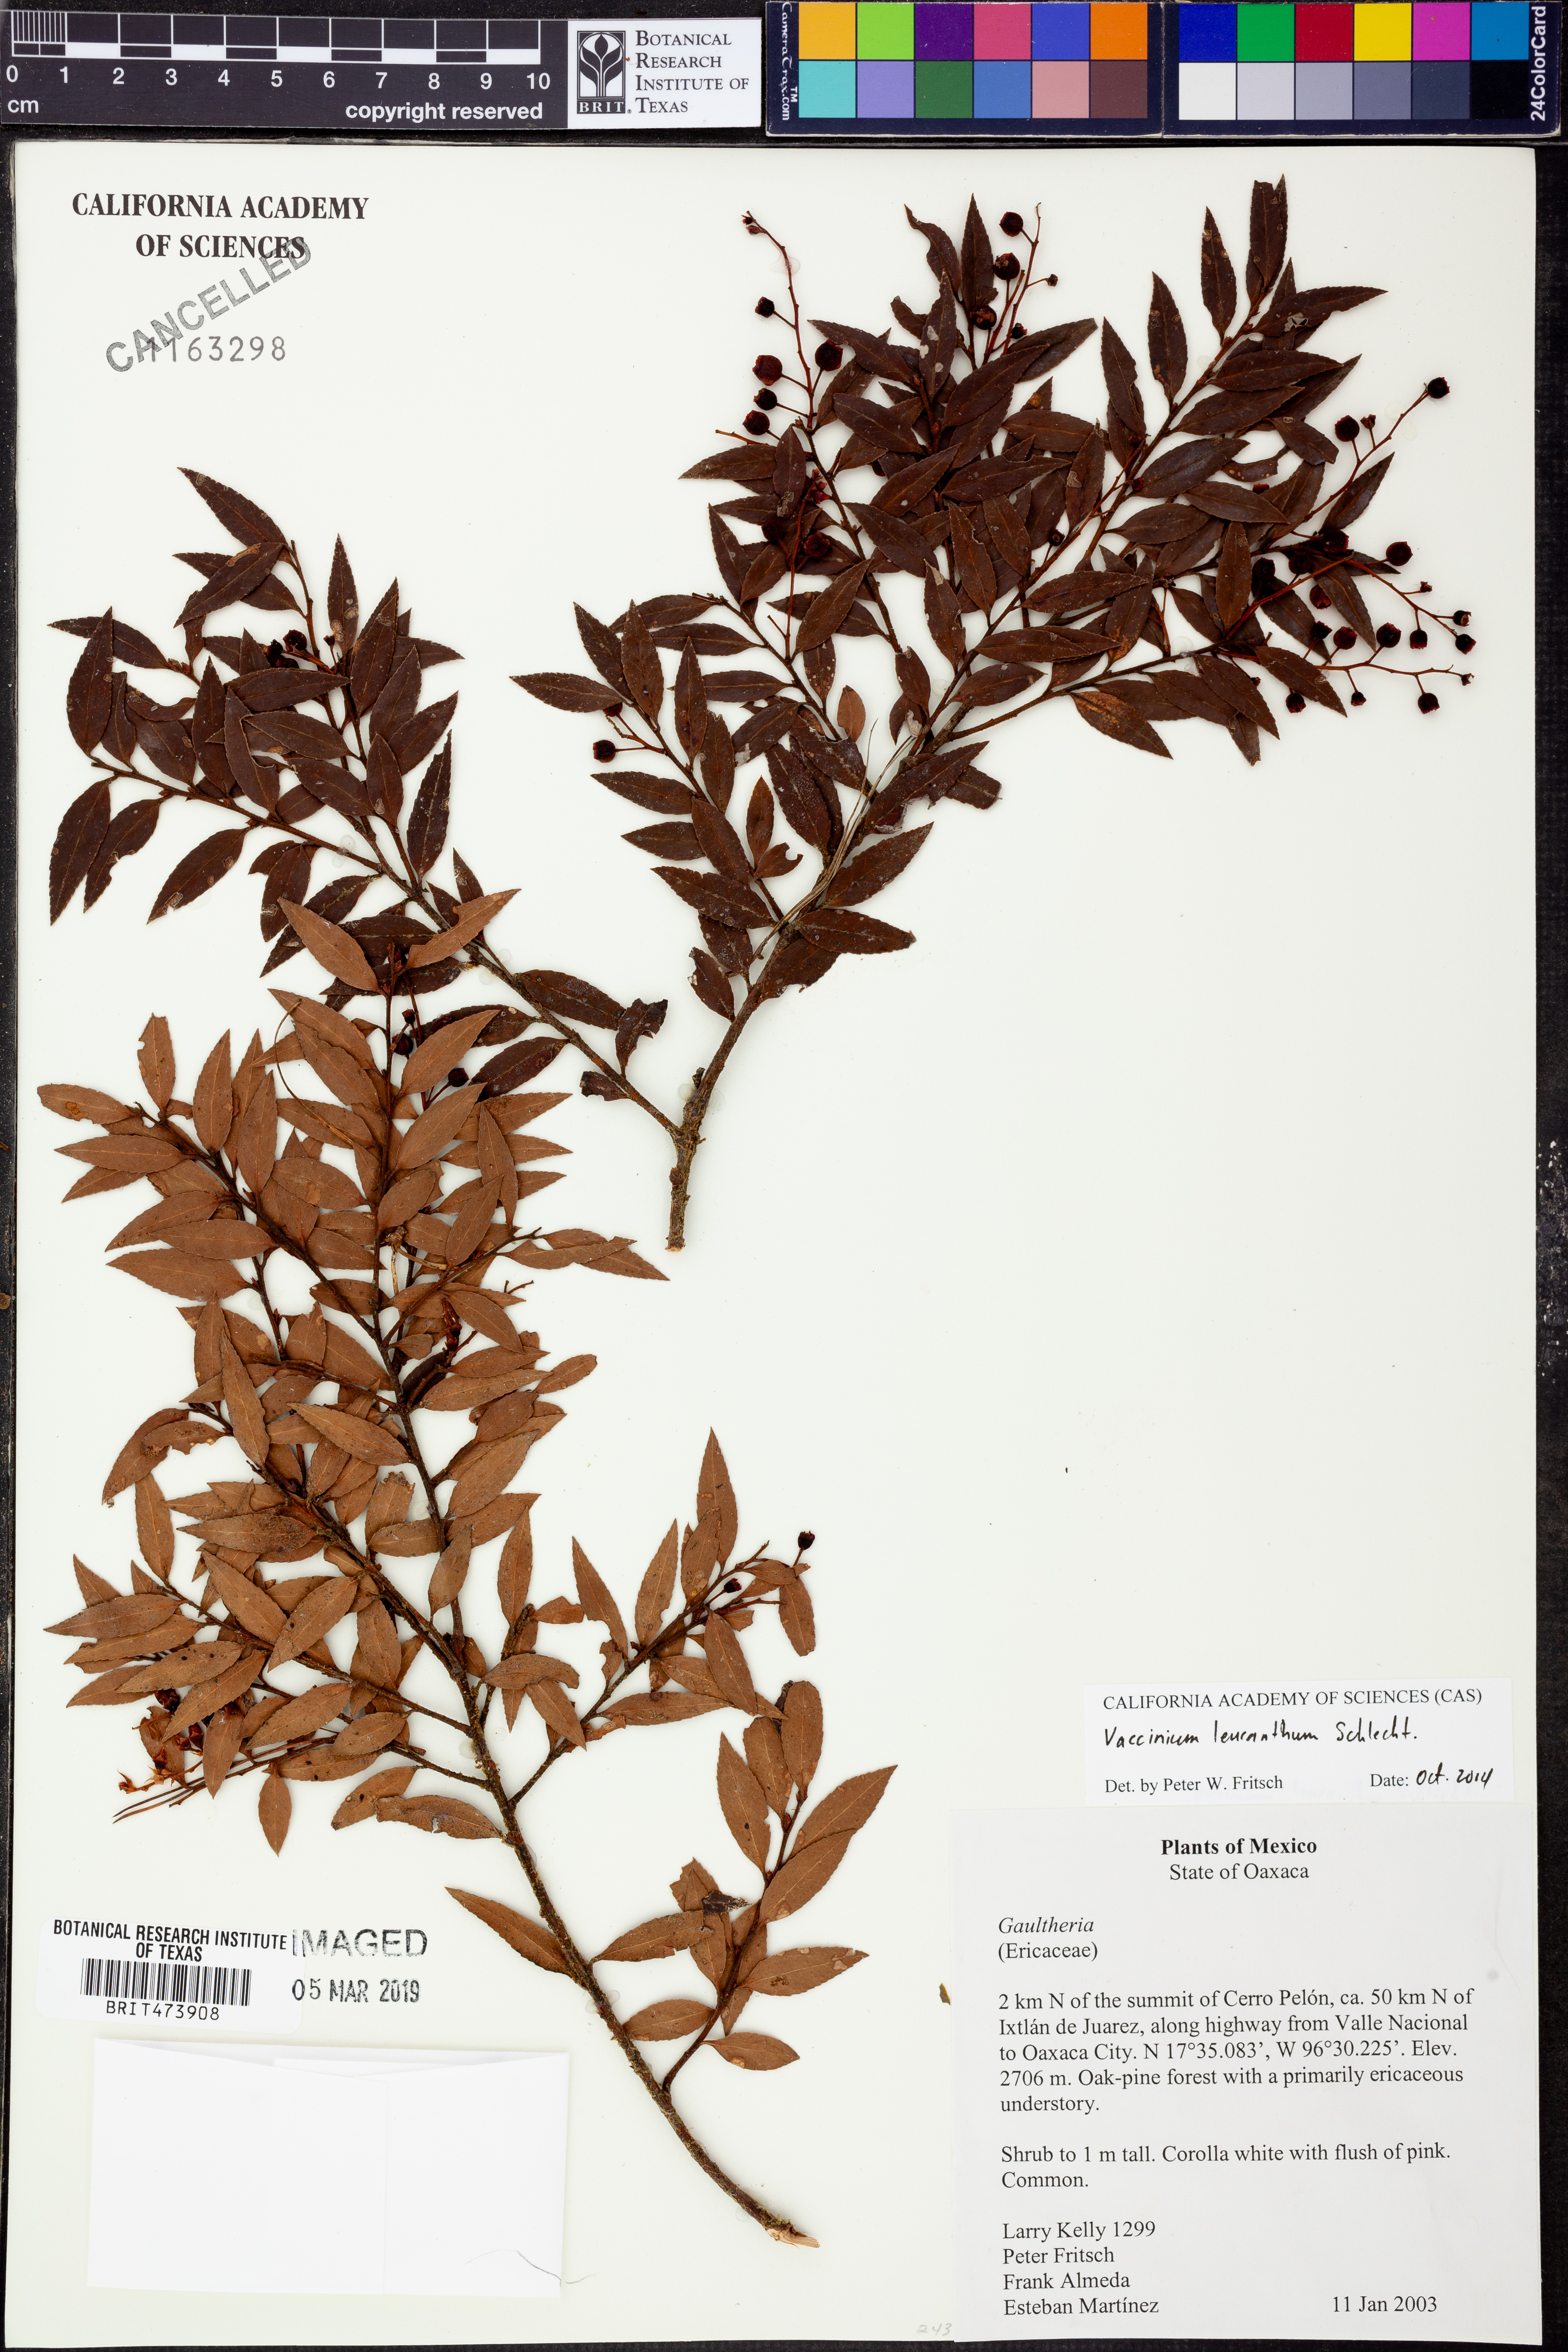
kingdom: Plantae
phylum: Tracheophyta
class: Magnoliopsida
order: Ericales
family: Ericaceae
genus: Vaccinium
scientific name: Vaccinium leucanthum
